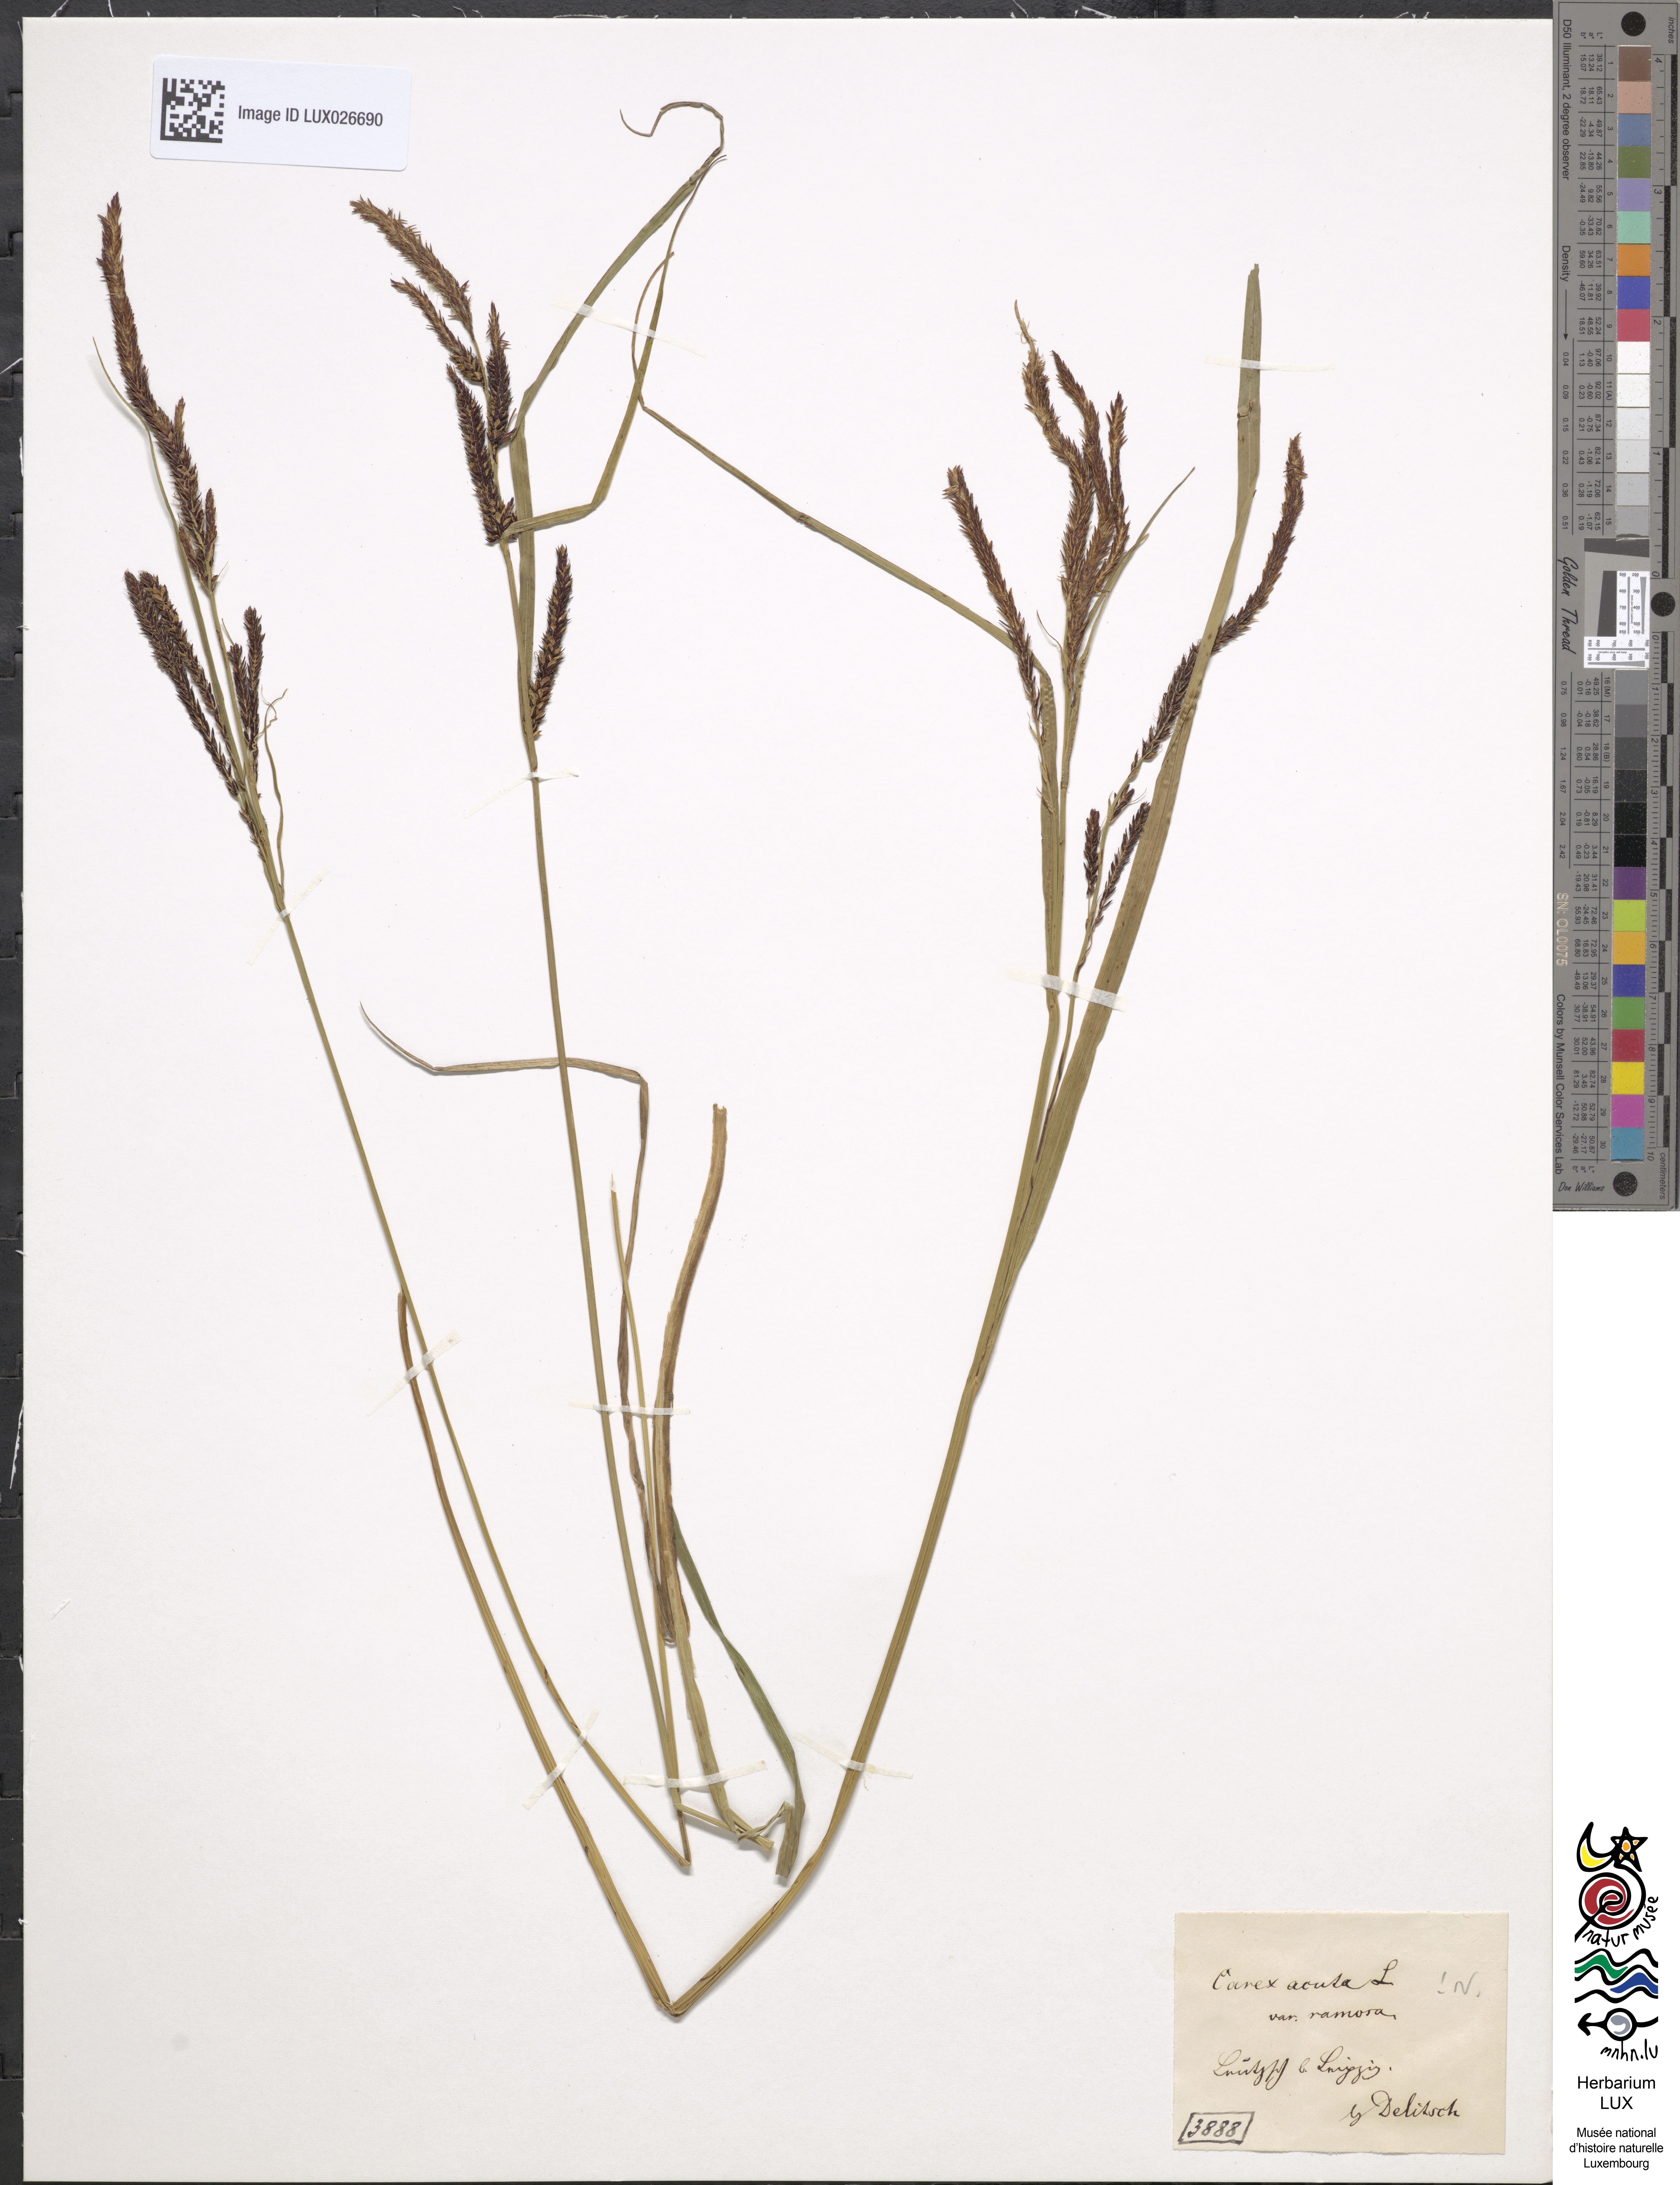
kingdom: Plantae
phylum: Tracheophyta
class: Liliopsida
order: Poales
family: Cyperaceae
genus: Carex
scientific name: Carex
